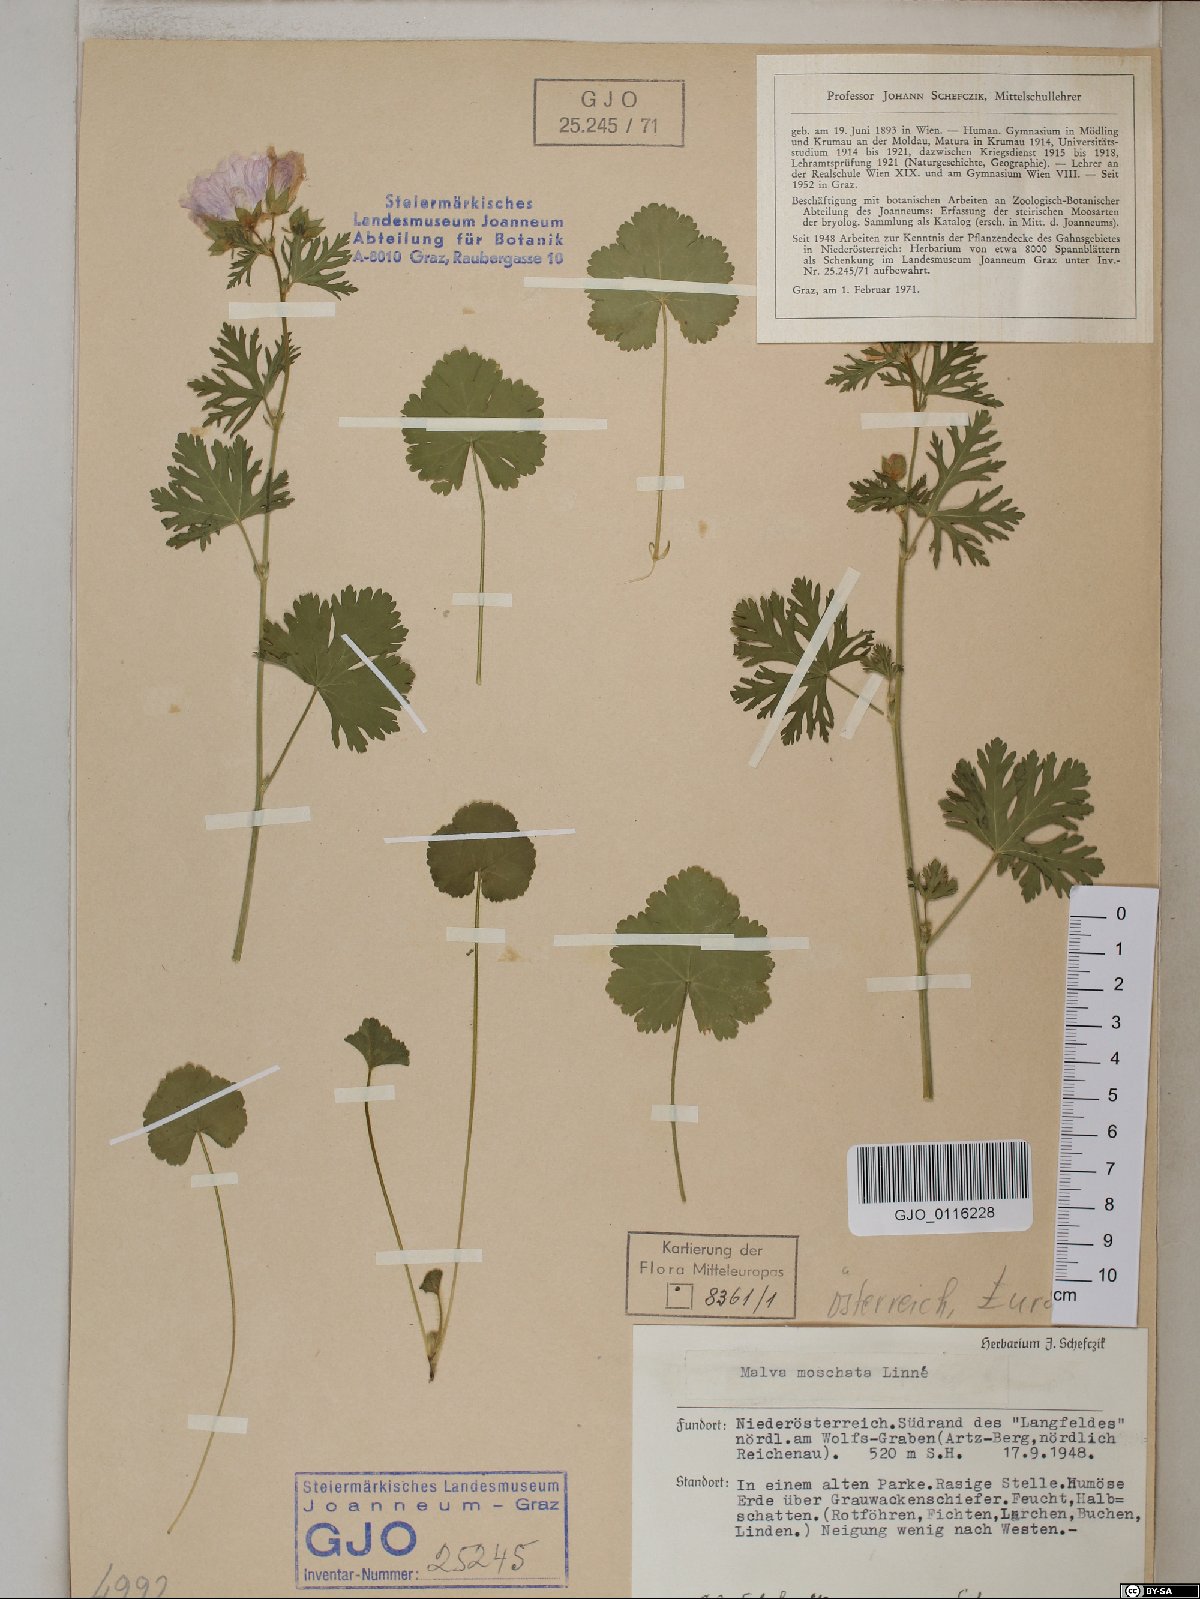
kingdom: Plantae
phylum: Tracheophyta
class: Magnoliopsida
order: Malvales
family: Malvaceae
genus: Malva
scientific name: Malva moschata
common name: Musk mallow
